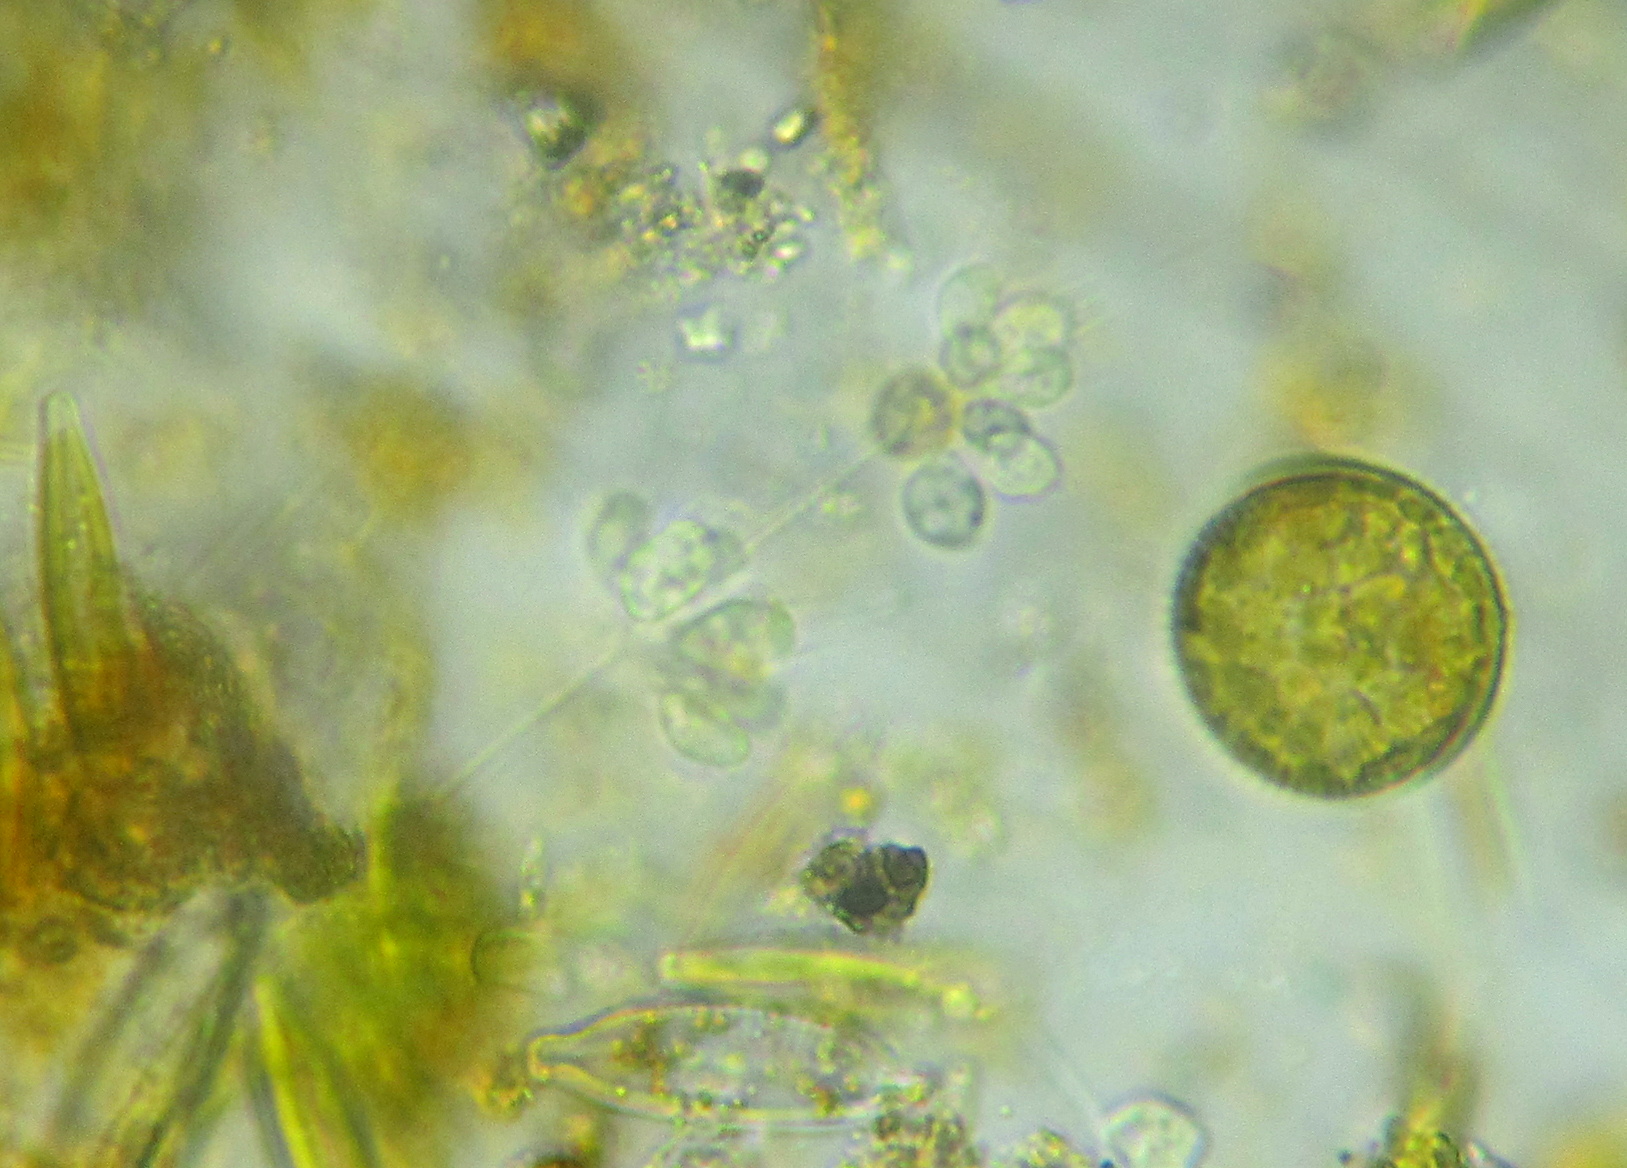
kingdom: Protozoa
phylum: Choanozoa
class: Choanoflagellatea
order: Choanoflagellida
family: Codosigidae
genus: Codosiga
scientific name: Codosiga botrytis
